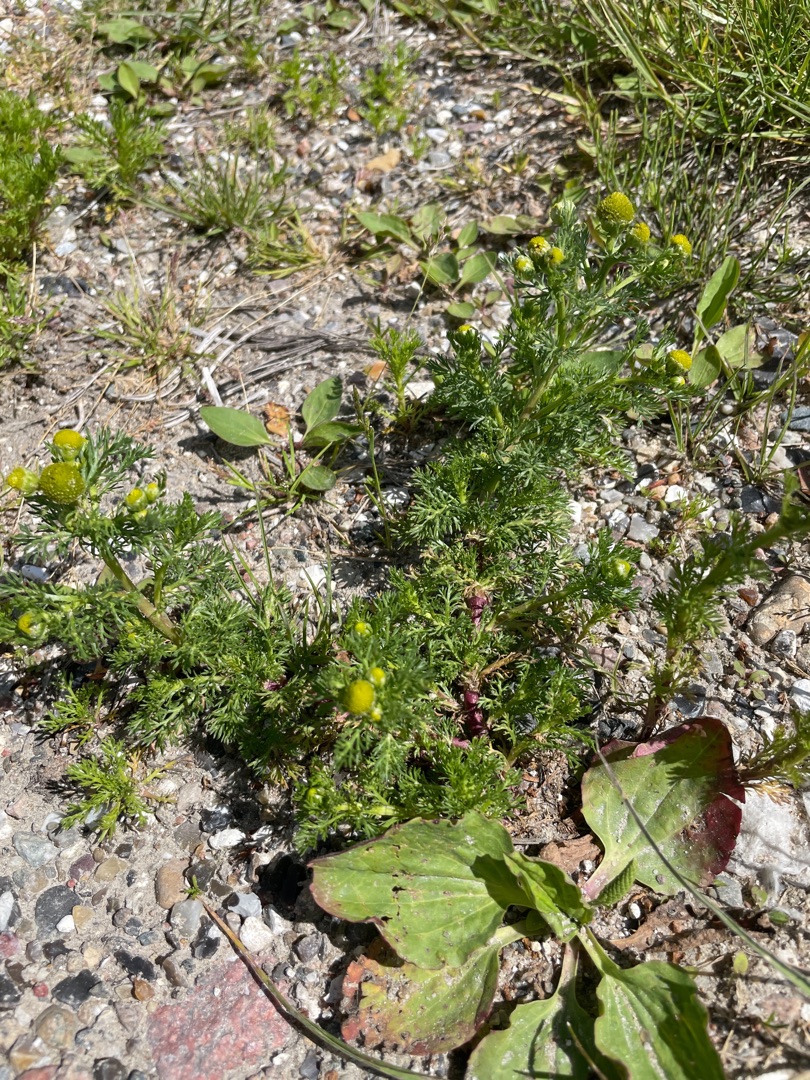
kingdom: Plantae
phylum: Tracheophyta
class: Magnoliopsida
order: Asterales
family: Asteraceae
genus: Matricaria
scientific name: Matricaria discoidea
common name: Skive-kamille
